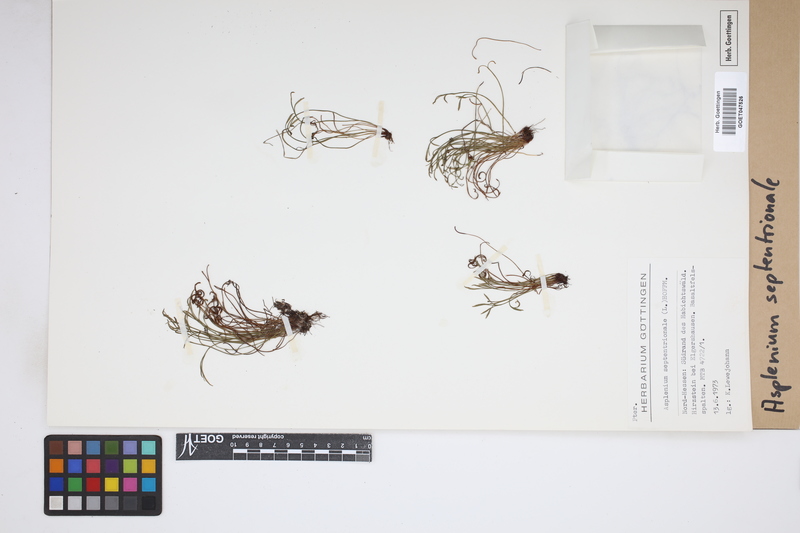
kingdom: Plantae
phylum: Tracheophyta
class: Polypodiopsida
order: Polypodiales
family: Aspleniaceae
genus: Asplenium
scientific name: Asplenium septentrionale
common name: Forked spleenwort
